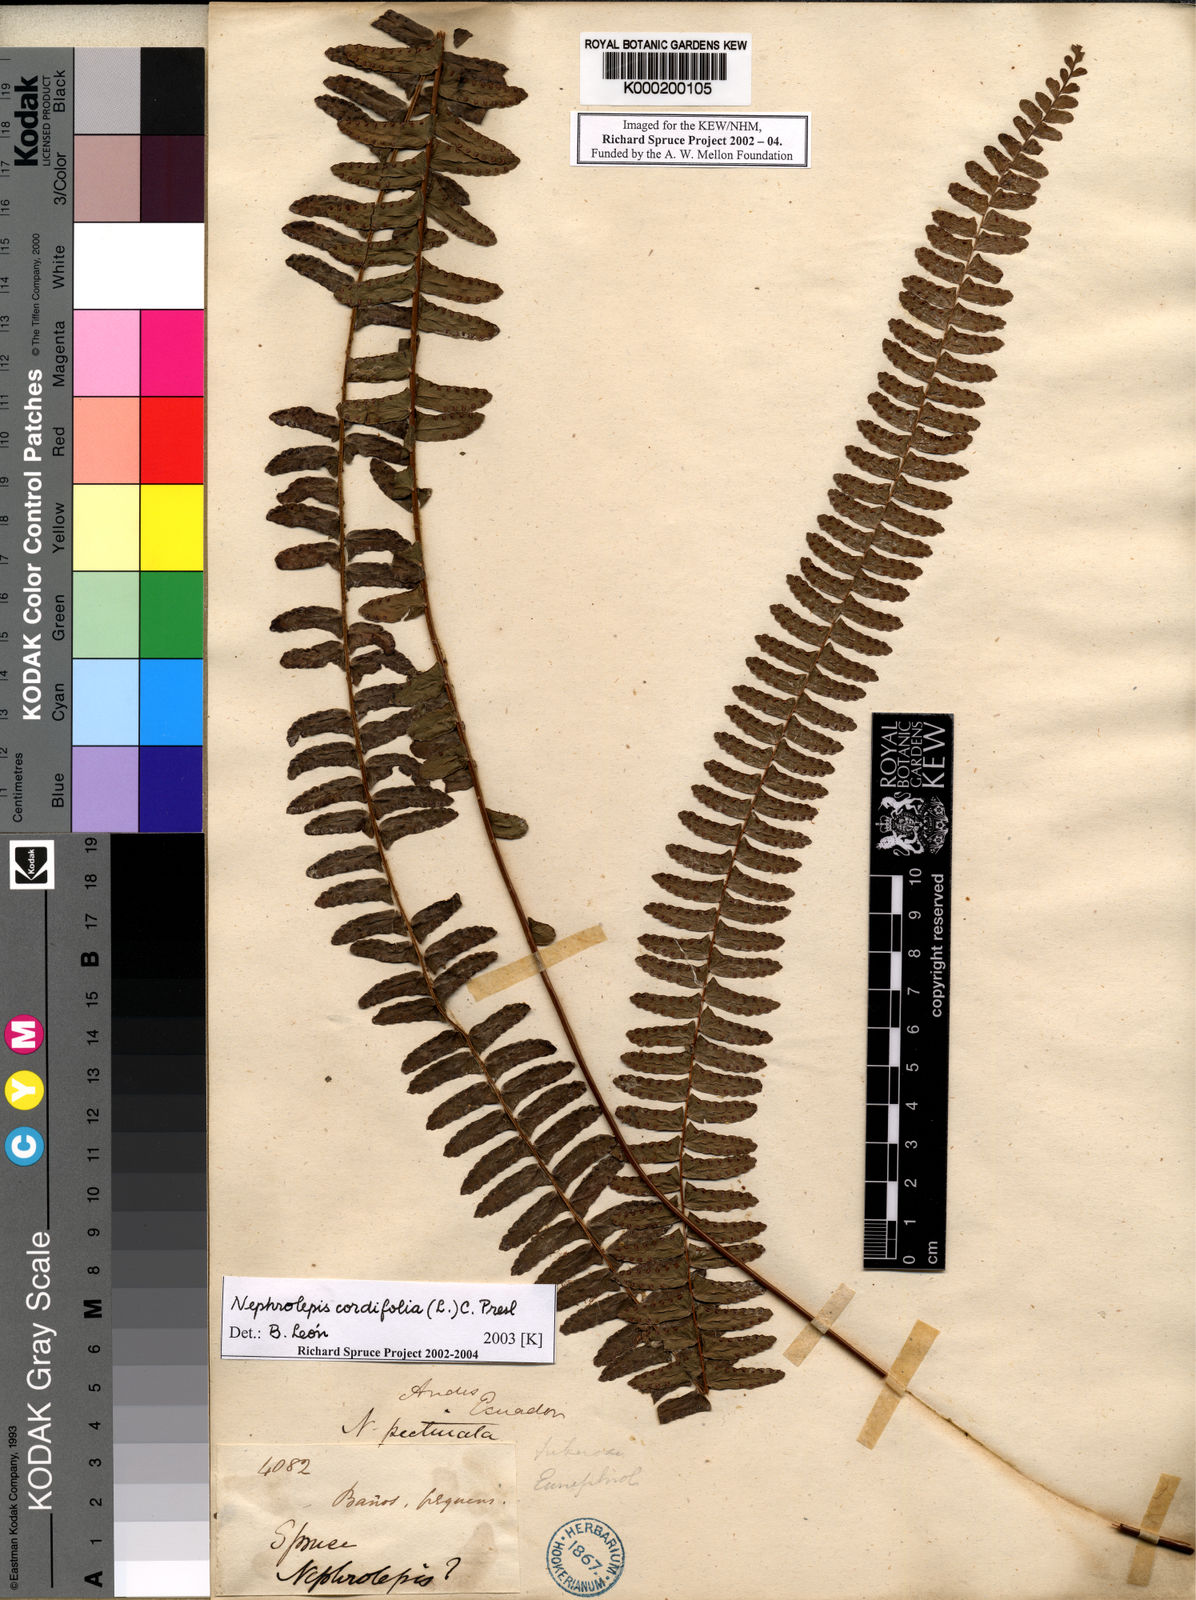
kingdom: Plantae
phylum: Tracheophyta
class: Polypodiopsida
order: Polypodiales
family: Nephrolepidaceae
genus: Nephrolepis
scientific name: Nephrolepis cordifolia
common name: Narrow swordfern
